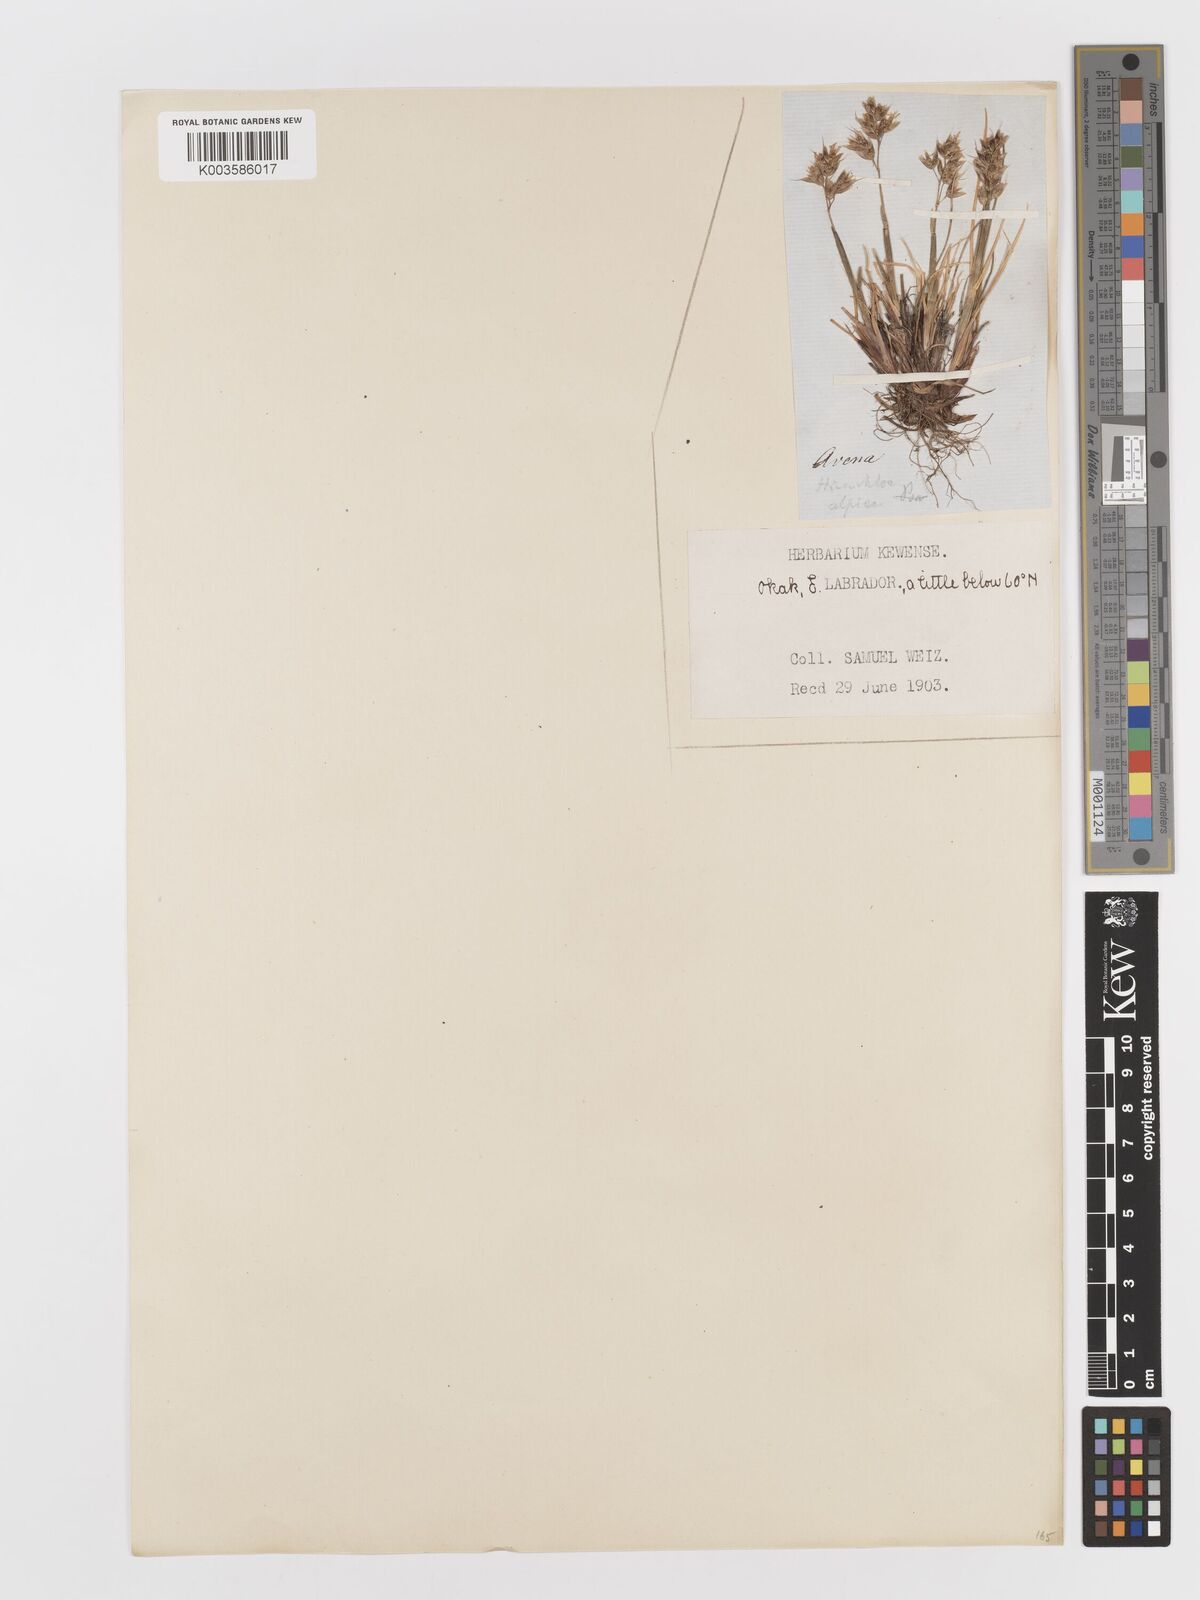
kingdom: Plantae
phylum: Tracheophyta
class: Liliopsida
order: Poales
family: Poaceae
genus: Anthoxanthum
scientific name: Anthoxanthum monticola
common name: Alpine sweetgrass
